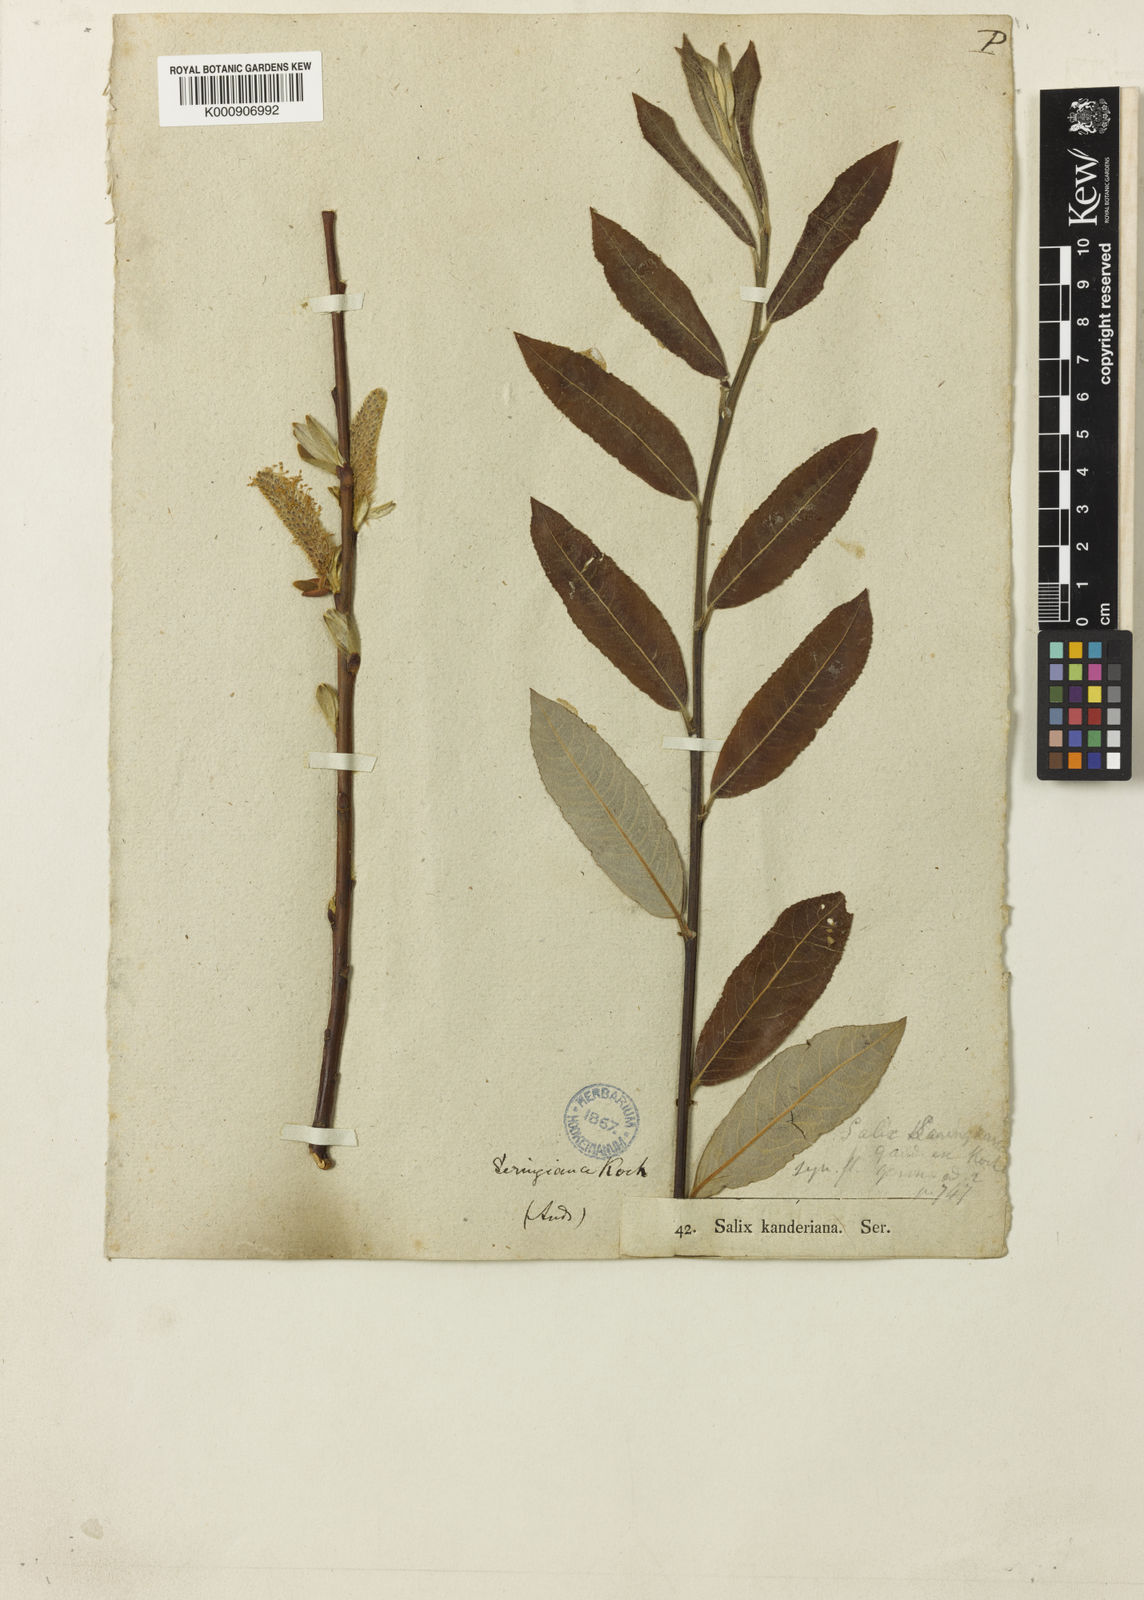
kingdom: Plantae
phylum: Tracheophyta
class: Magnoliopsida
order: Malpighiales
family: Salicaceae
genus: Salix
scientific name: Salix cinerea
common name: Common sallow
